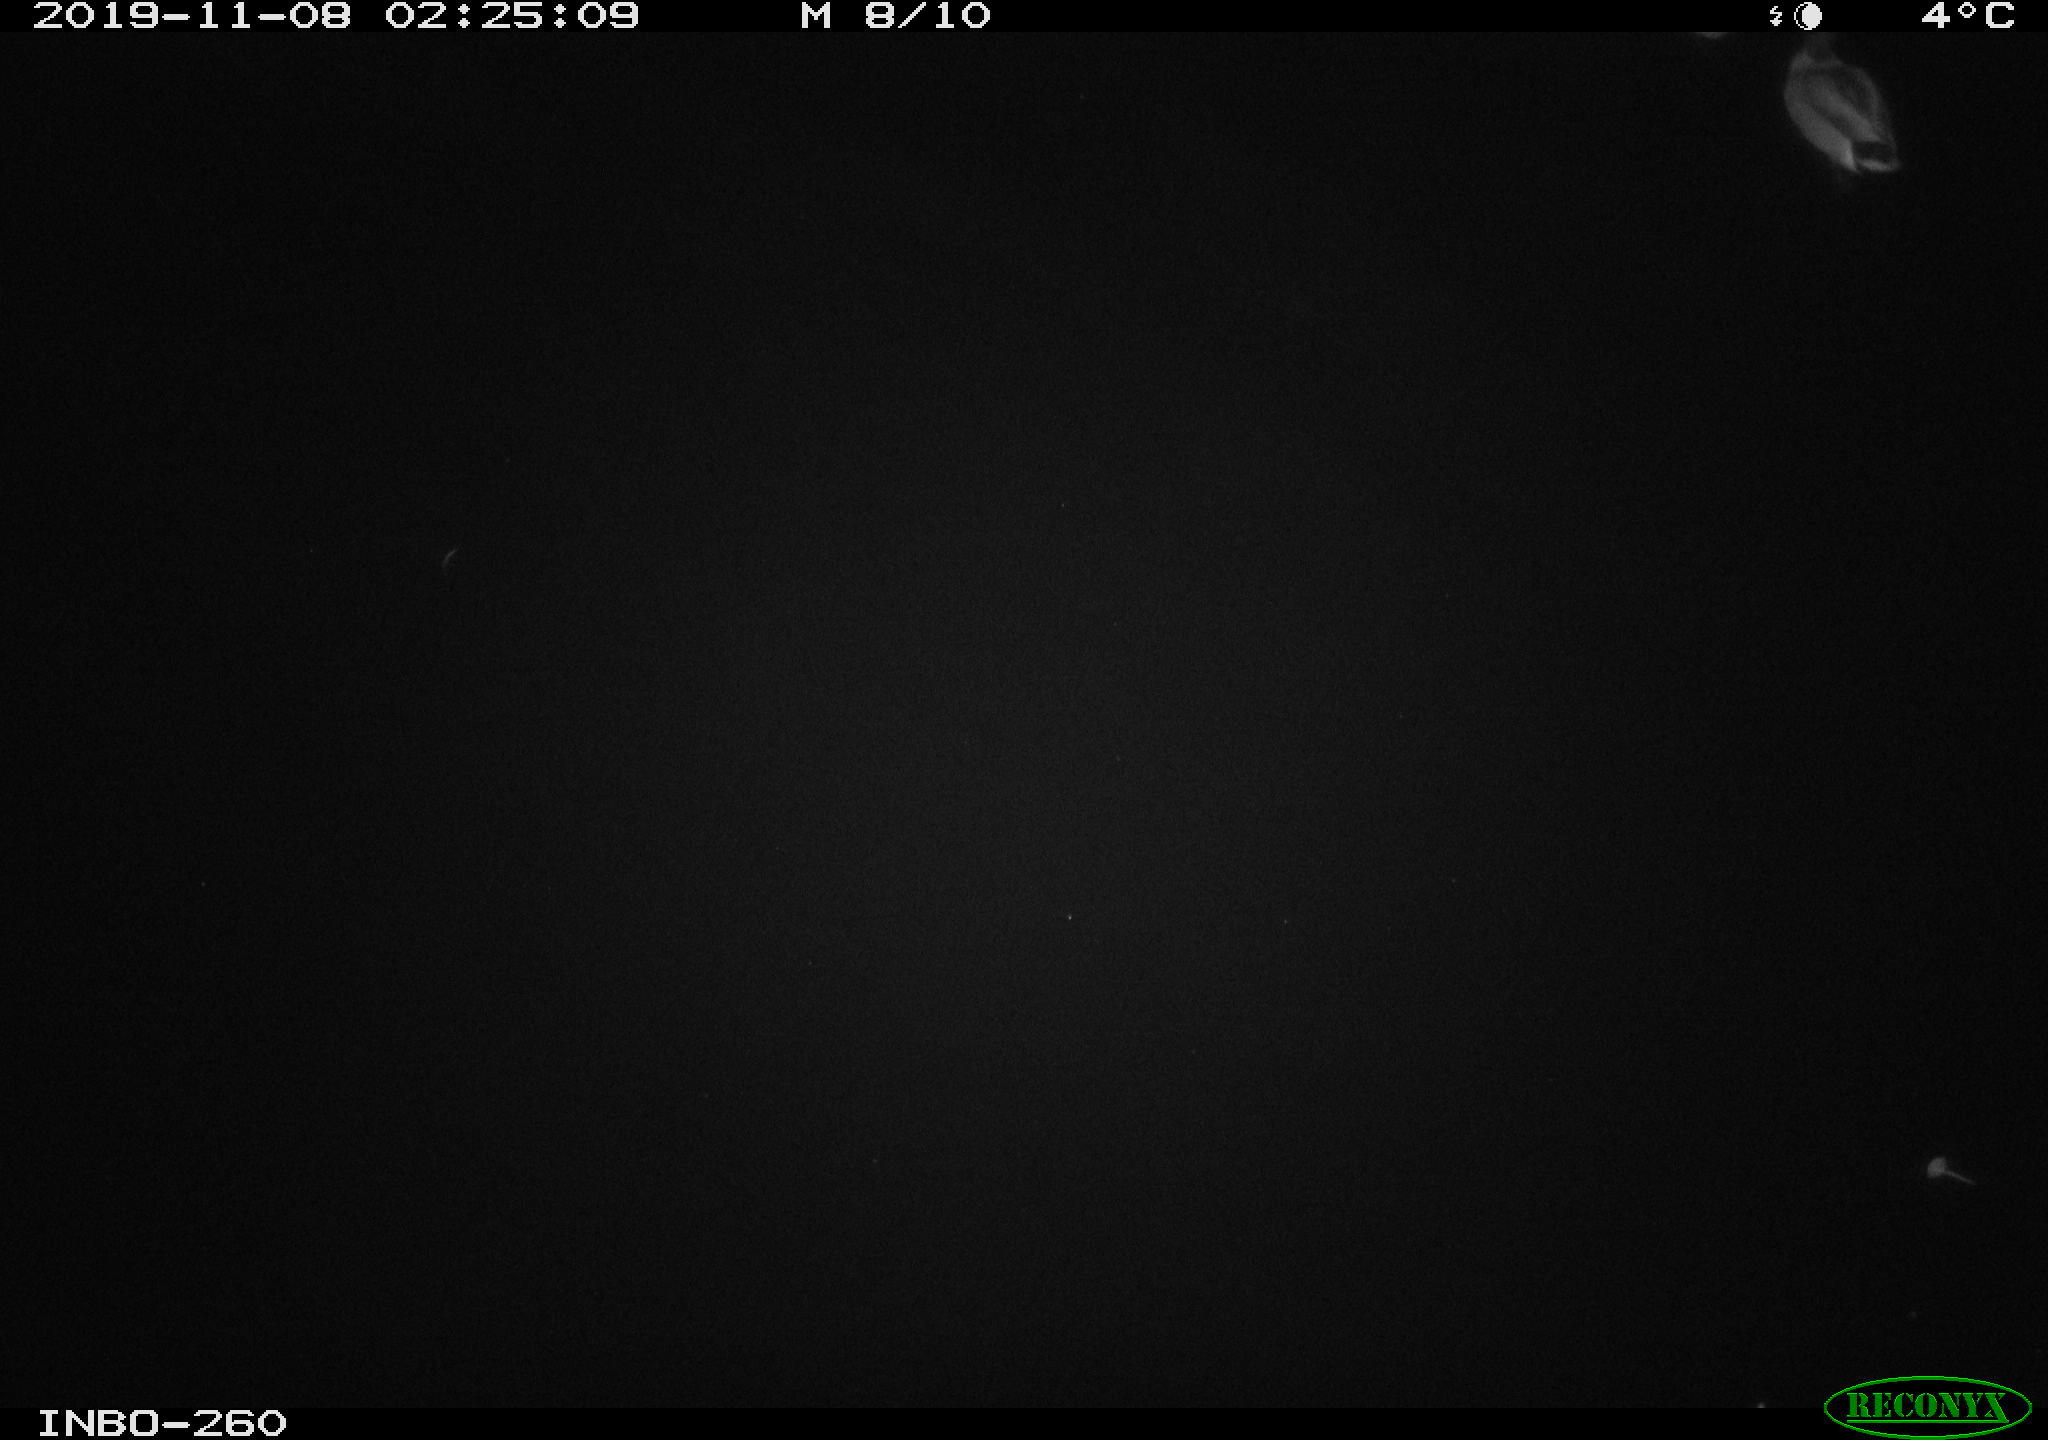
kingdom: Animalia
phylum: Chordata
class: Aves
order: Anseriformes
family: Anatidae
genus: Anas
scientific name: Anas platyrhynchos
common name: Mallard
